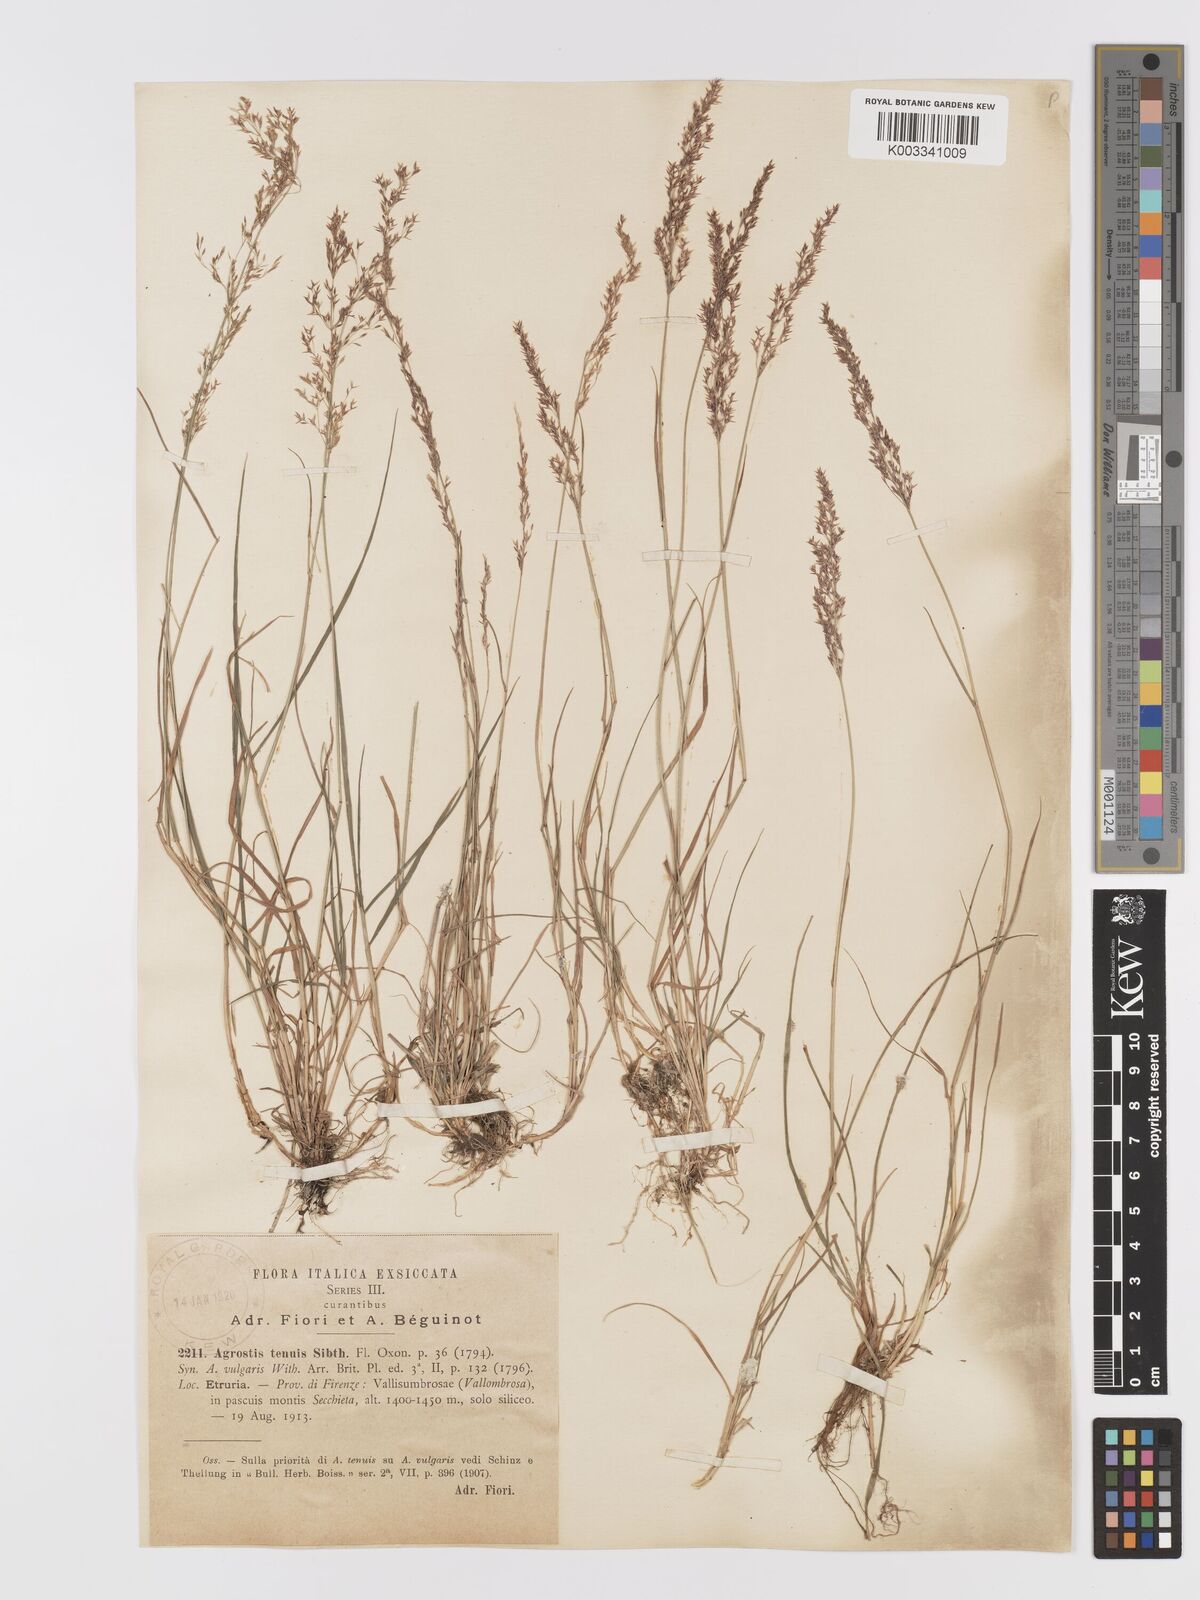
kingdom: Plantae
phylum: Tracheophyta
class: Liliopsida
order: Poales
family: Poaceae
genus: Agrostis
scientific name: Agrostis capillaris
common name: Colonial bentgrass
